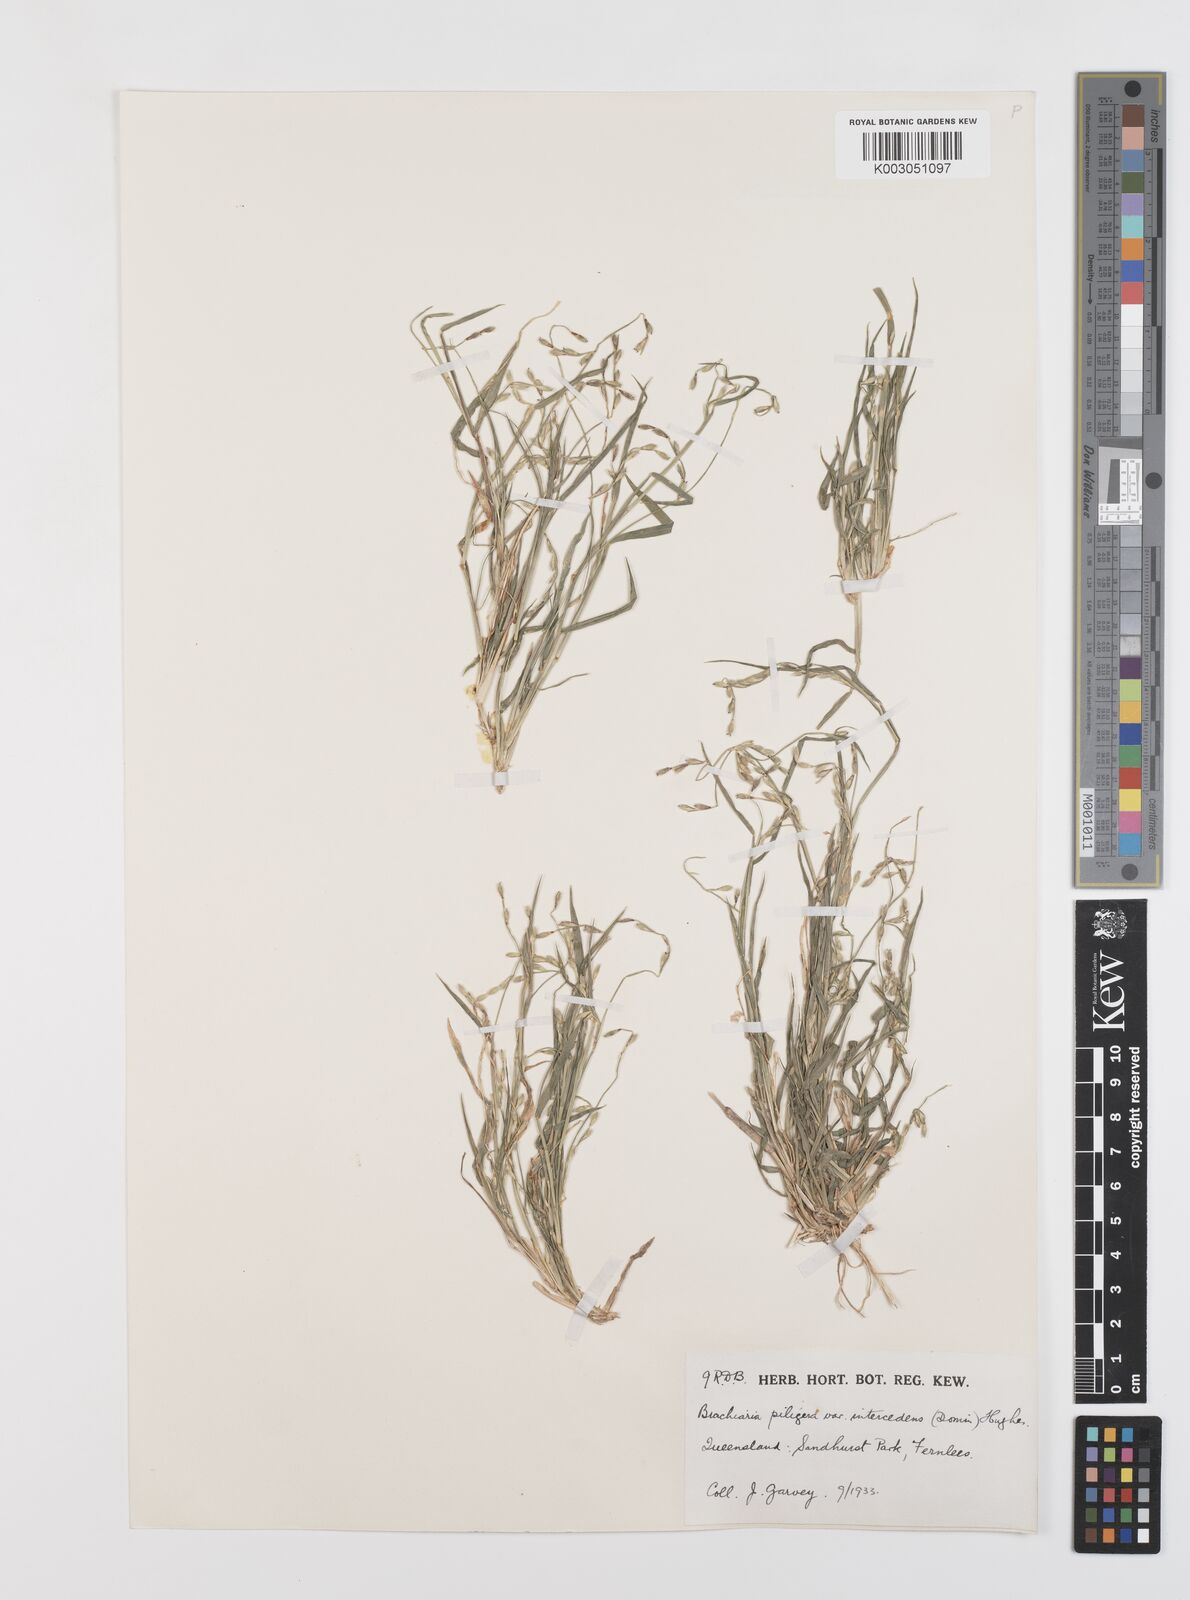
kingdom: Plantae
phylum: Tracheophyta
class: Liliopsida
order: Poales
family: Poaceae
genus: Urochloa
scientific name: Urochloa piligera
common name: Wattle signalgrass
